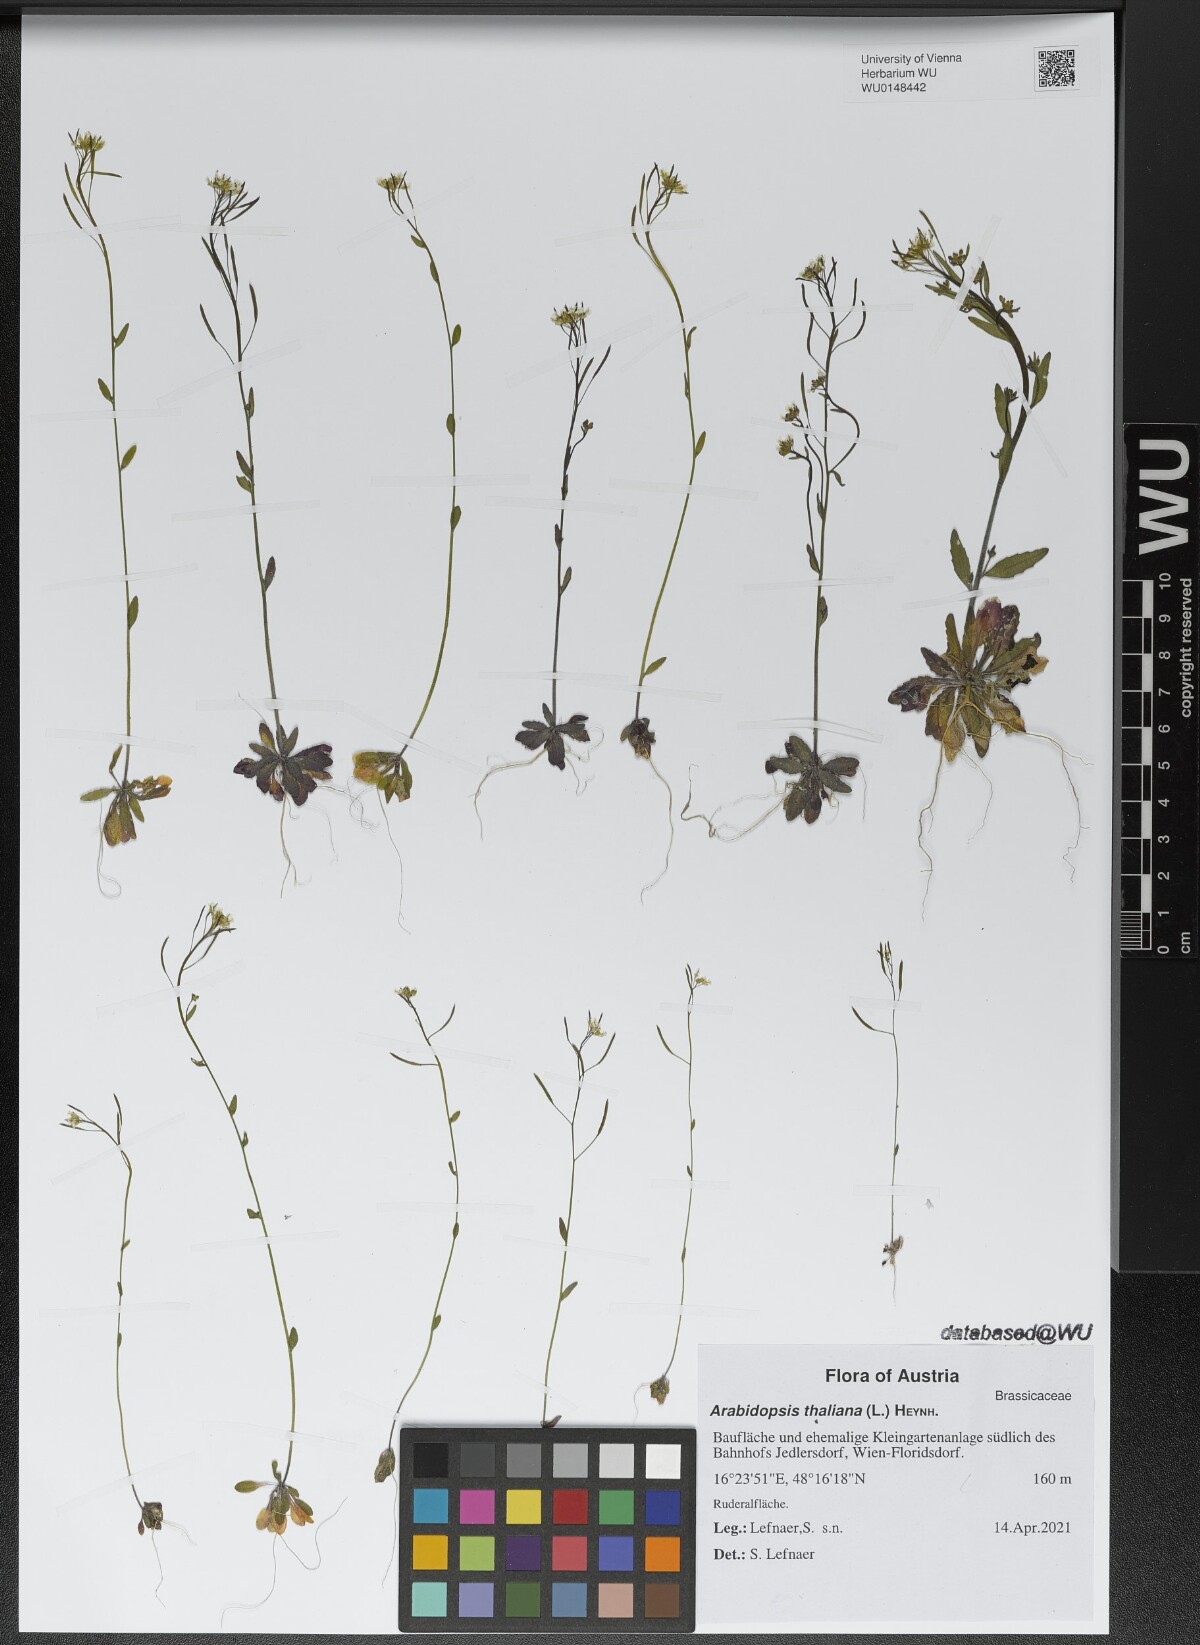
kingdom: Plantae
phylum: Tracheophyta
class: Magnoliopsida
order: Brassicales
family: Brassicaceae
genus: Arabidopsis
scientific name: Arabidopsis thaliana
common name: Thale cress
